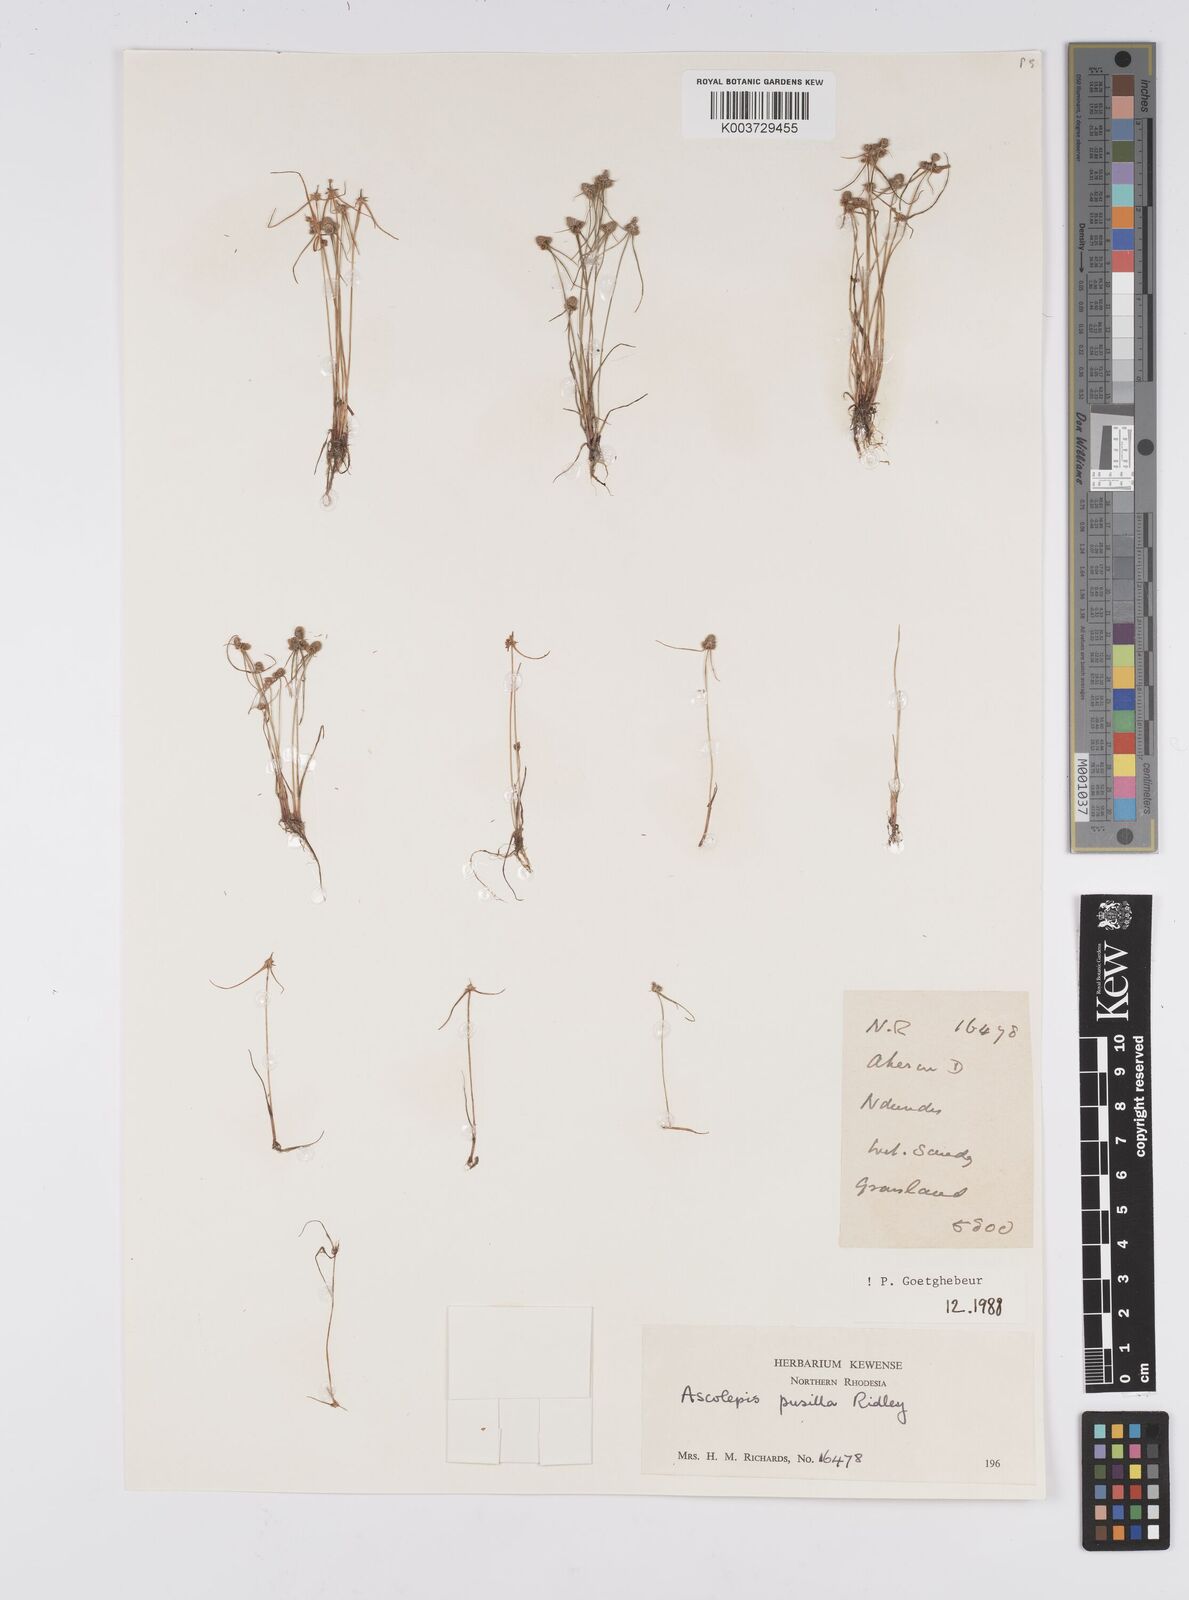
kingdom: Plantae
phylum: Tracheophyta
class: Liliopsida
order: Poales
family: Cyperaceae
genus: Cyperus
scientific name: Cyperus
